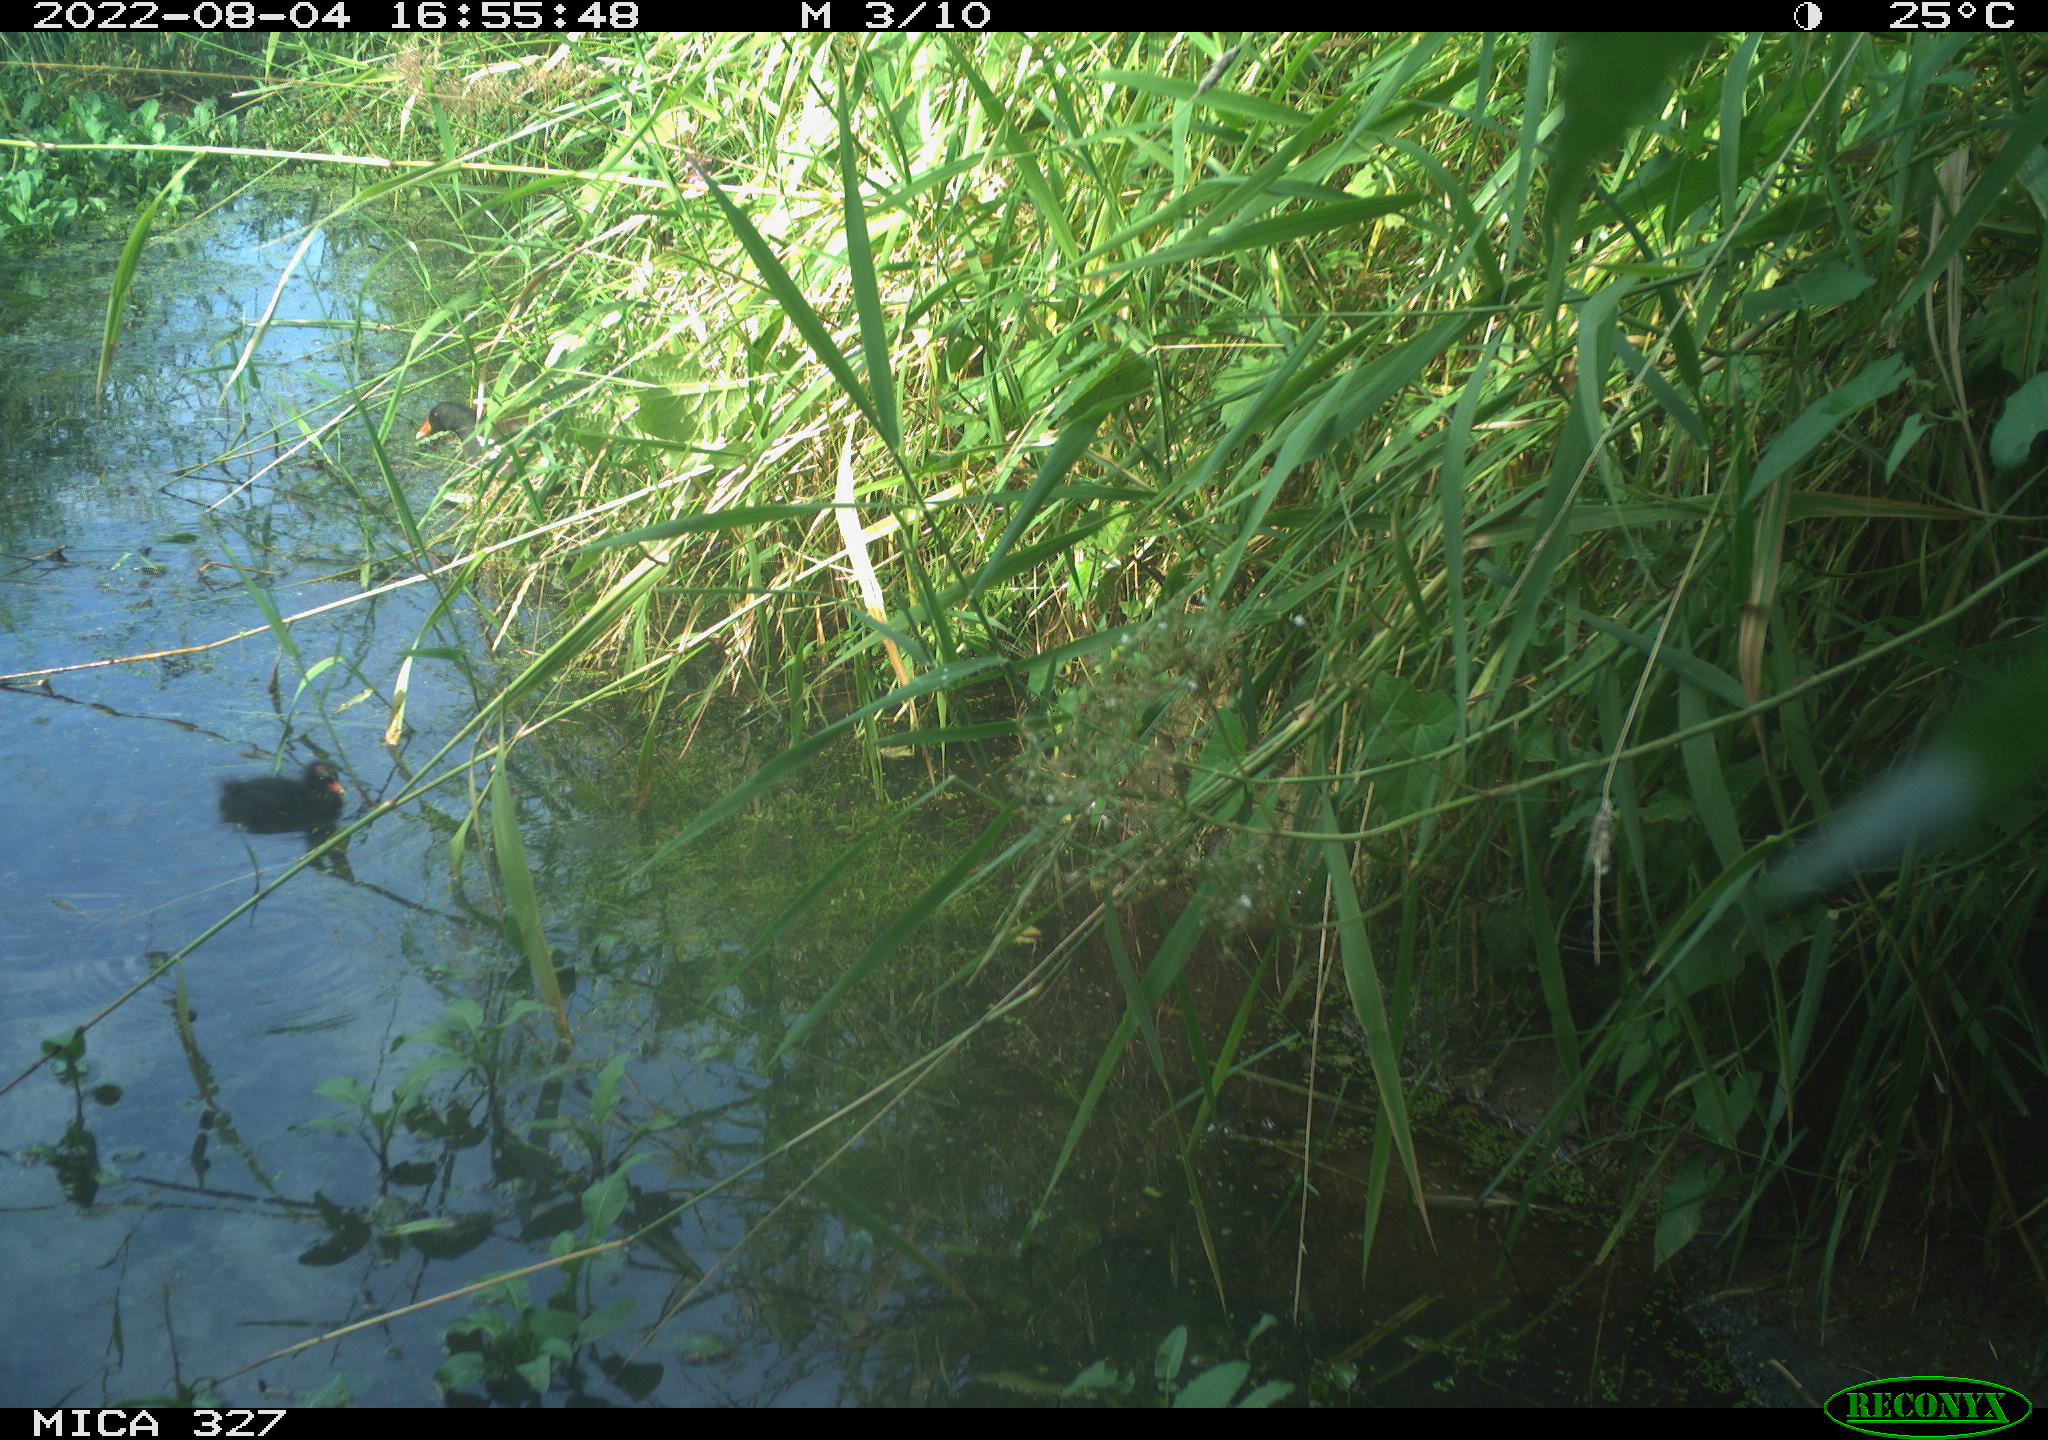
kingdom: Animalia
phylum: Chordata
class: Aves
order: Gruiformes
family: Rallidae
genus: Gallinula
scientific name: Gallinula chloropus
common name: Common moorhen
